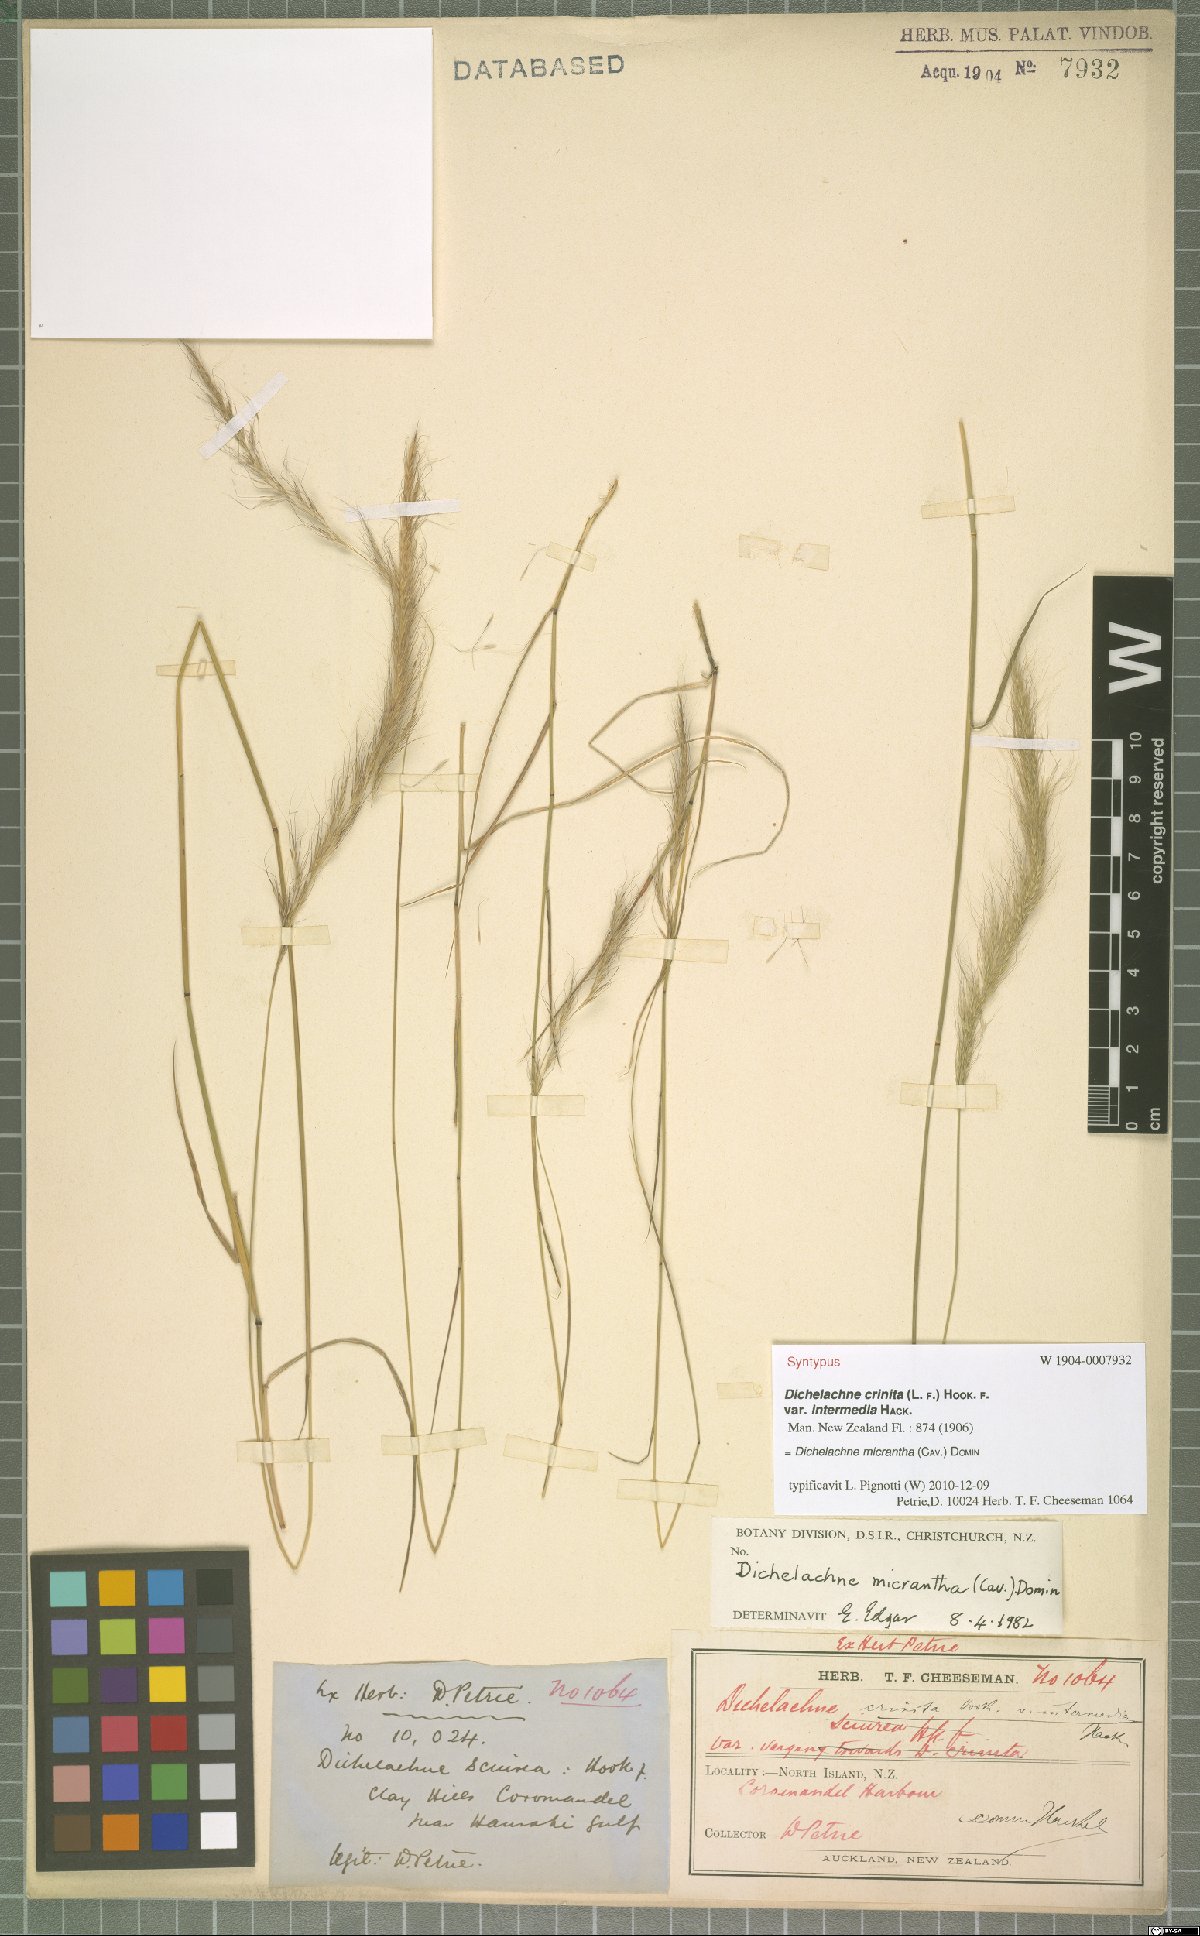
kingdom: Plantae
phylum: Tracheophyta
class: Liliopsida
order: Poales
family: Poaceae
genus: Dichelachne
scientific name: Dichelachne micrantha
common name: Plumegrass
